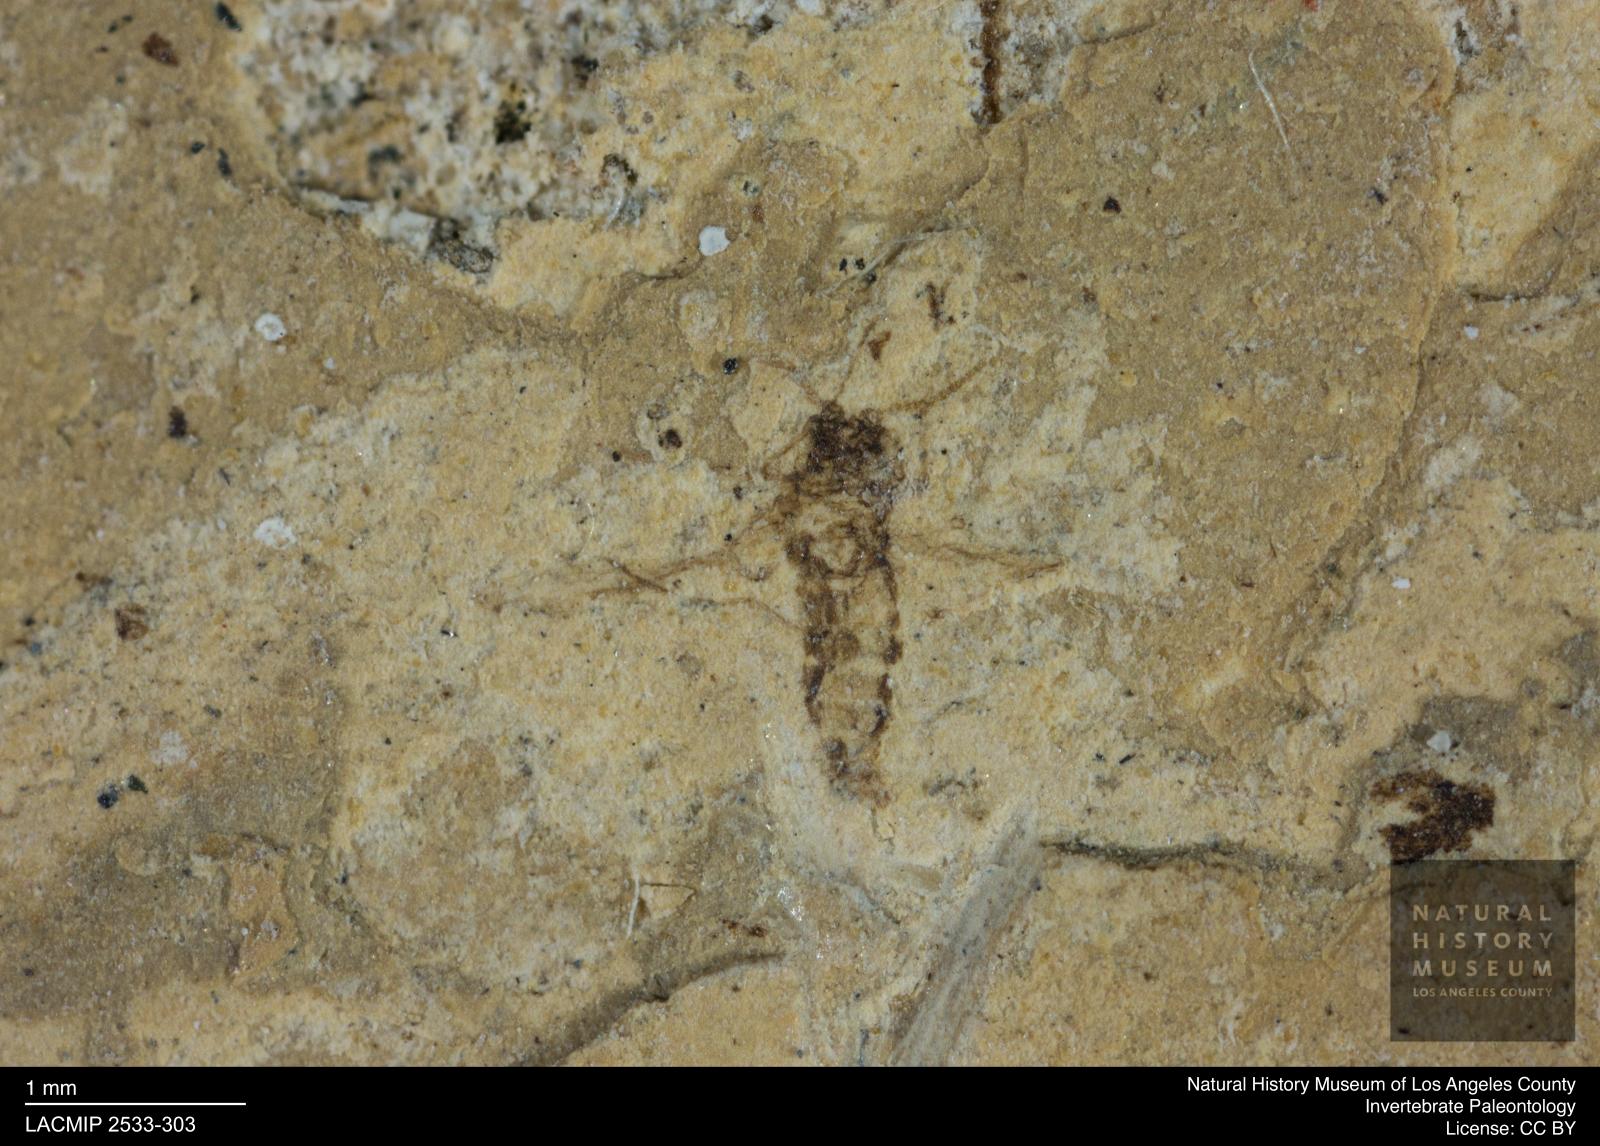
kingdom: Animalia
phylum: Arthropoda
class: Insecta
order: Diptera
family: Ceratopogonidae
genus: Atrichopogon
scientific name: Atrichopogon brunnescens
